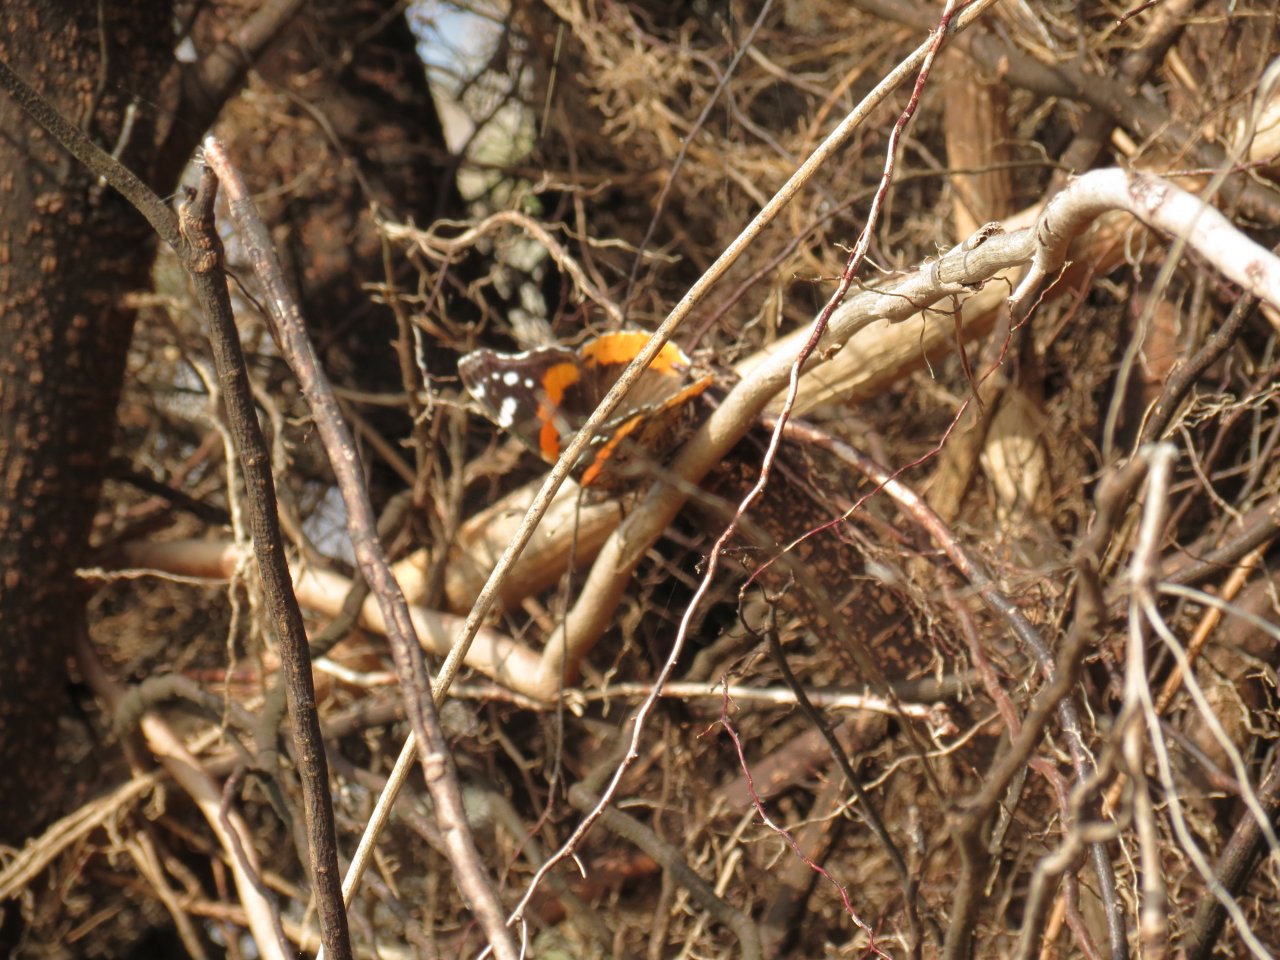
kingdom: Animalia
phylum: Arthropoda
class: Insecta
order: Lepidoptera
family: Nymphalidae
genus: Vanessa
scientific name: Vanessa atalanta
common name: Red Admiral
